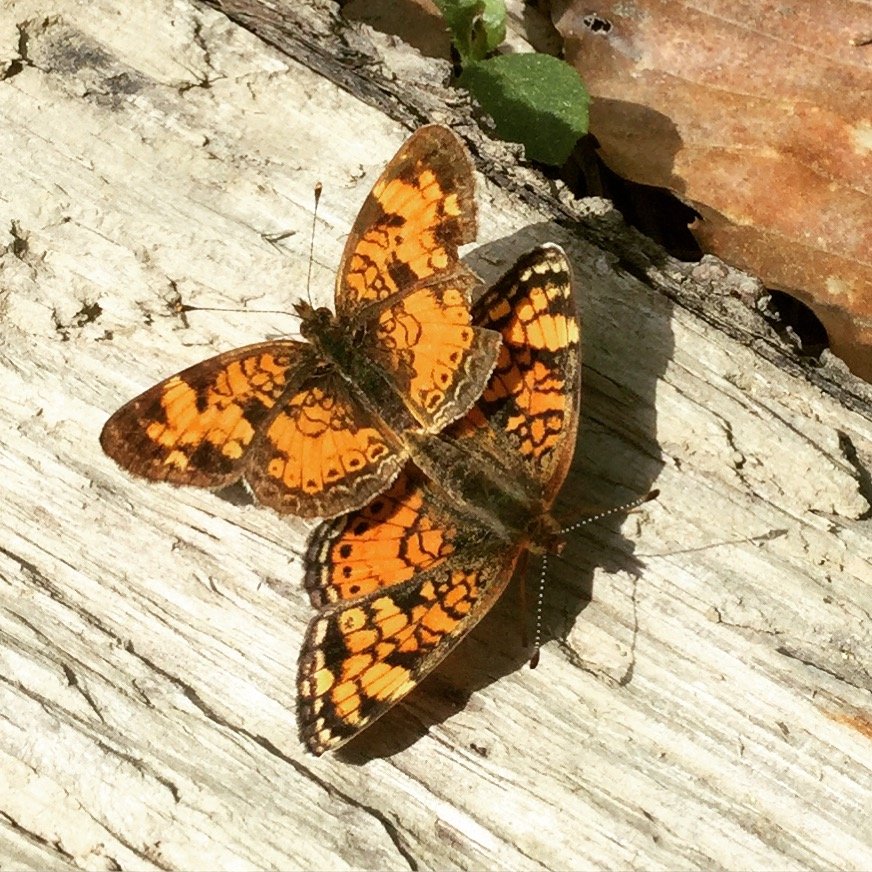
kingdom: Animalia
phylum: Arthropoda
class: Insecta
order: Lepidoptera
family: Nymphalidae
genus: Phyciodes
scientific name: Phyciodes tharos
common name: Pearl Crescent
